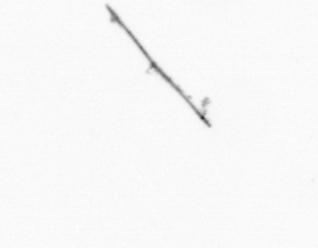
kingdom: Chromista
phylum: Ochrophyta
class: Bacillariophyceae
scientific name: Bacillariophyceae
